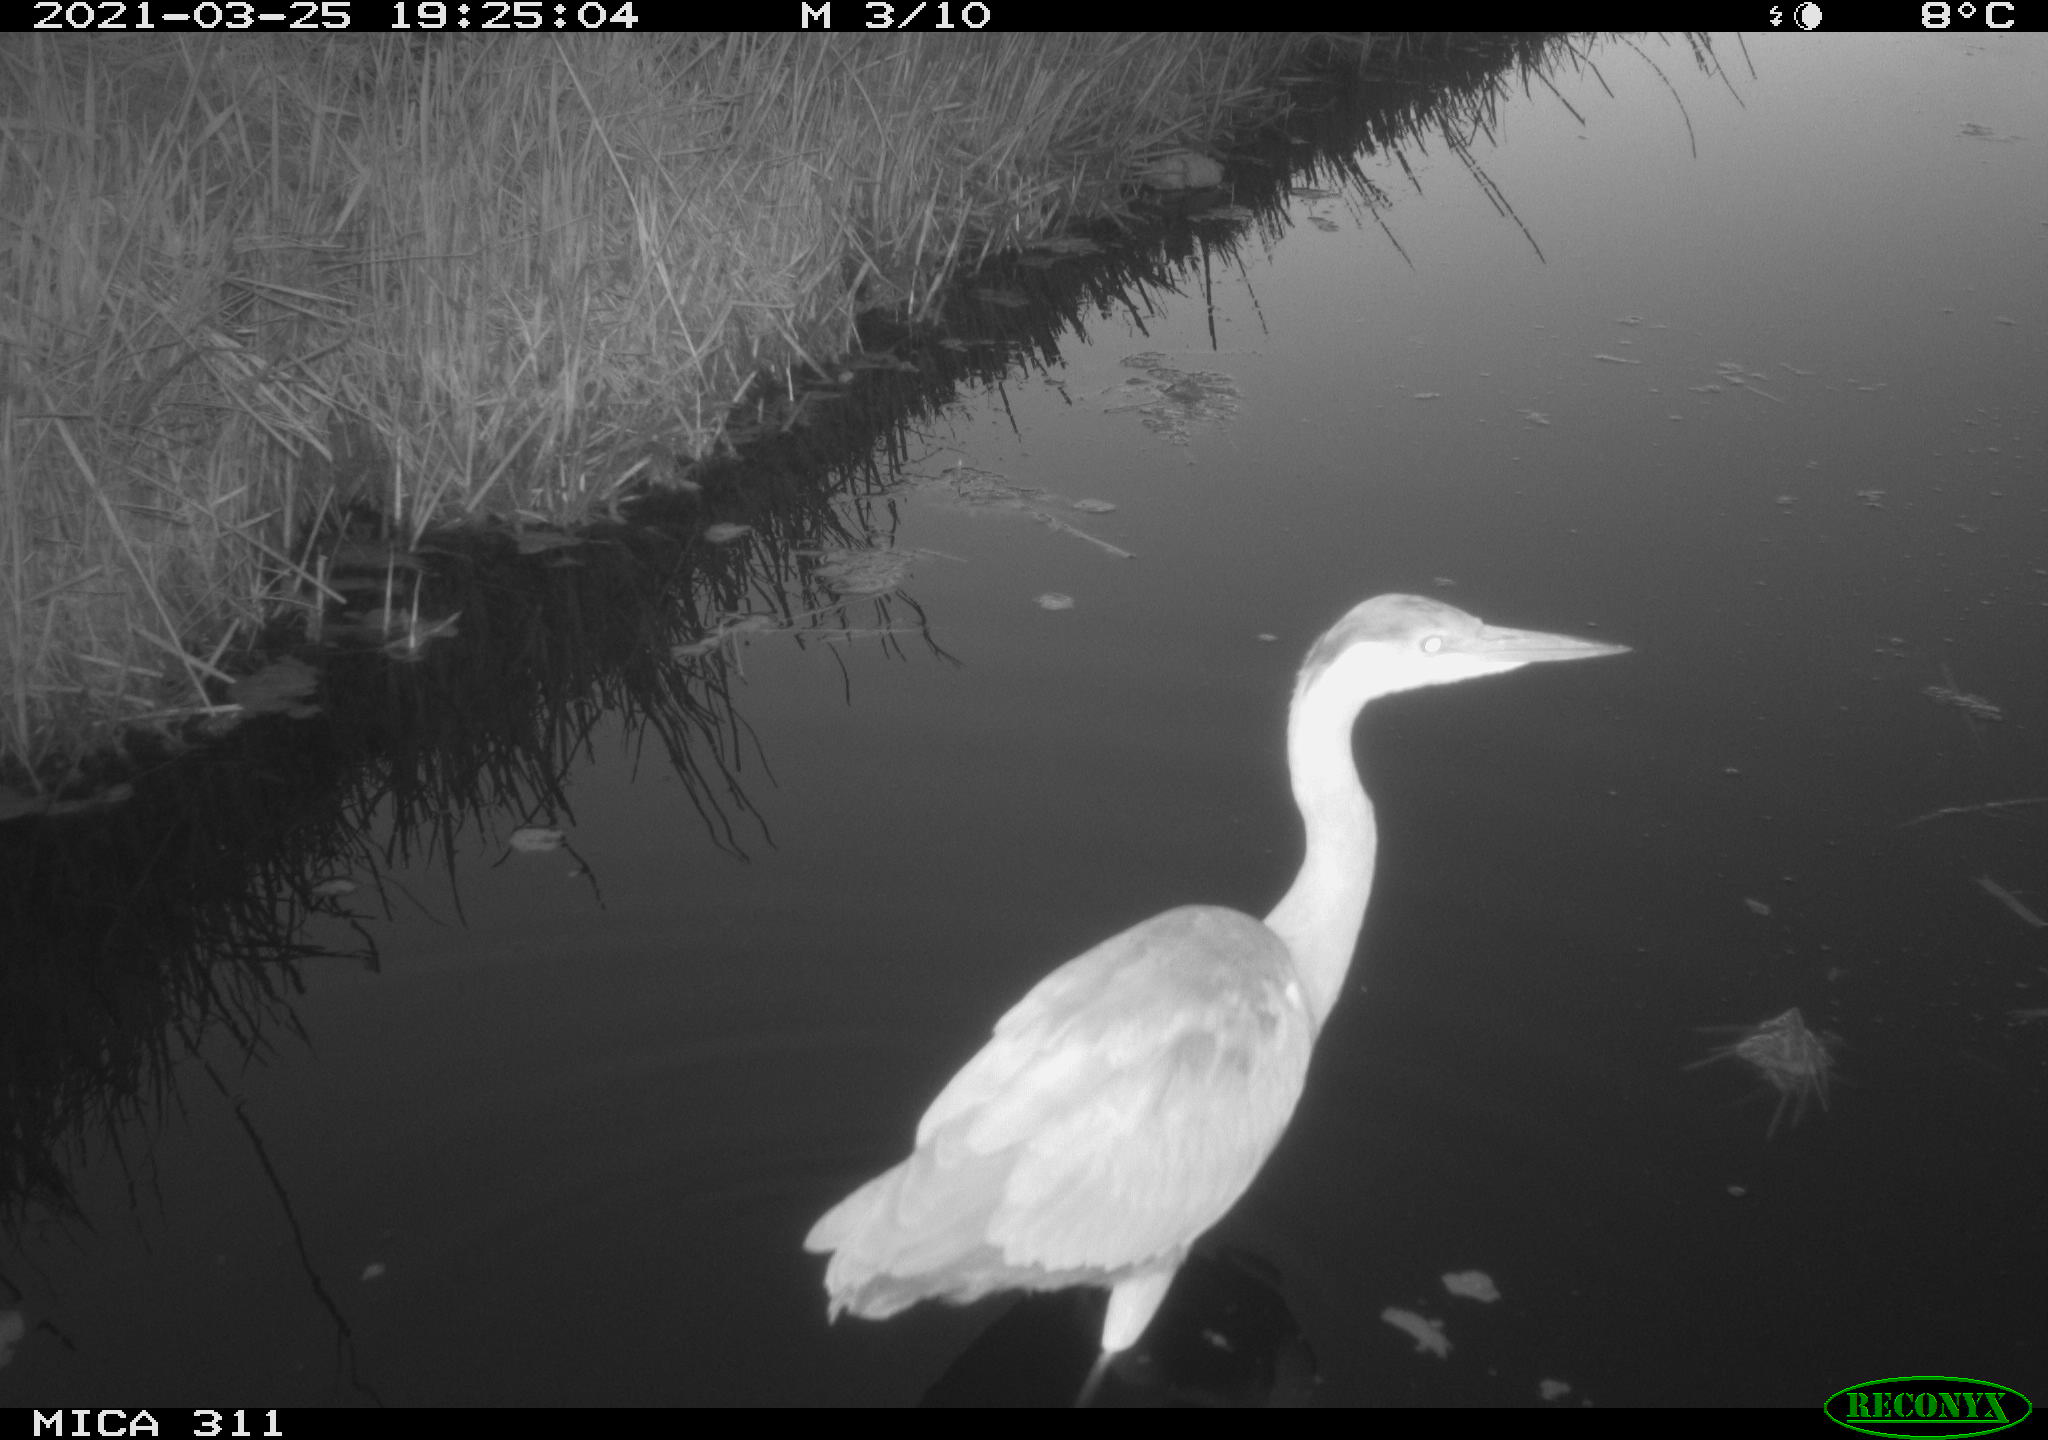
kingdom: Animalia
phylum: Chordata
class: Aves
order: Pelecaniformes
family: Ardeidae
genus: Ardea
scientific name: Ardea
